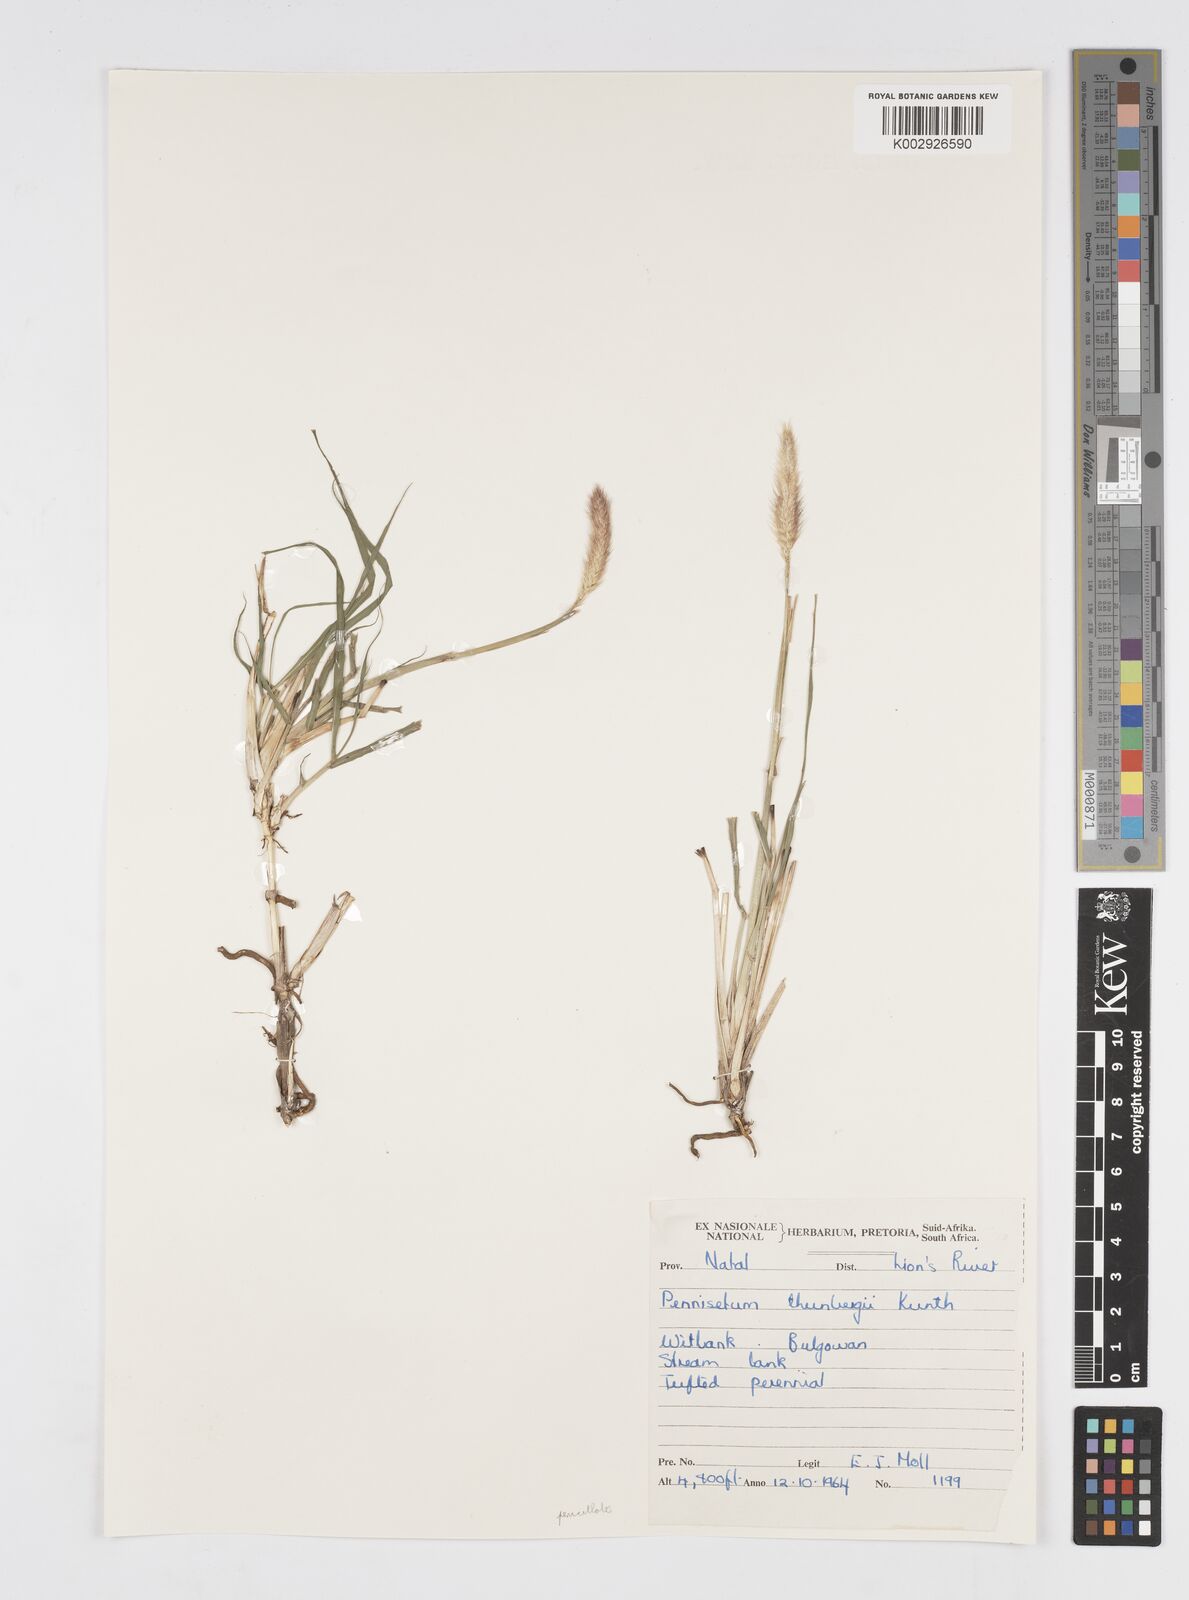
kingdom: Plantae
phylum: Tracheophyta
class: Liliopsida
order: Poales
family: Poaceae
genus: Cenchrus
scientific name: Cenchrus geniculatus
